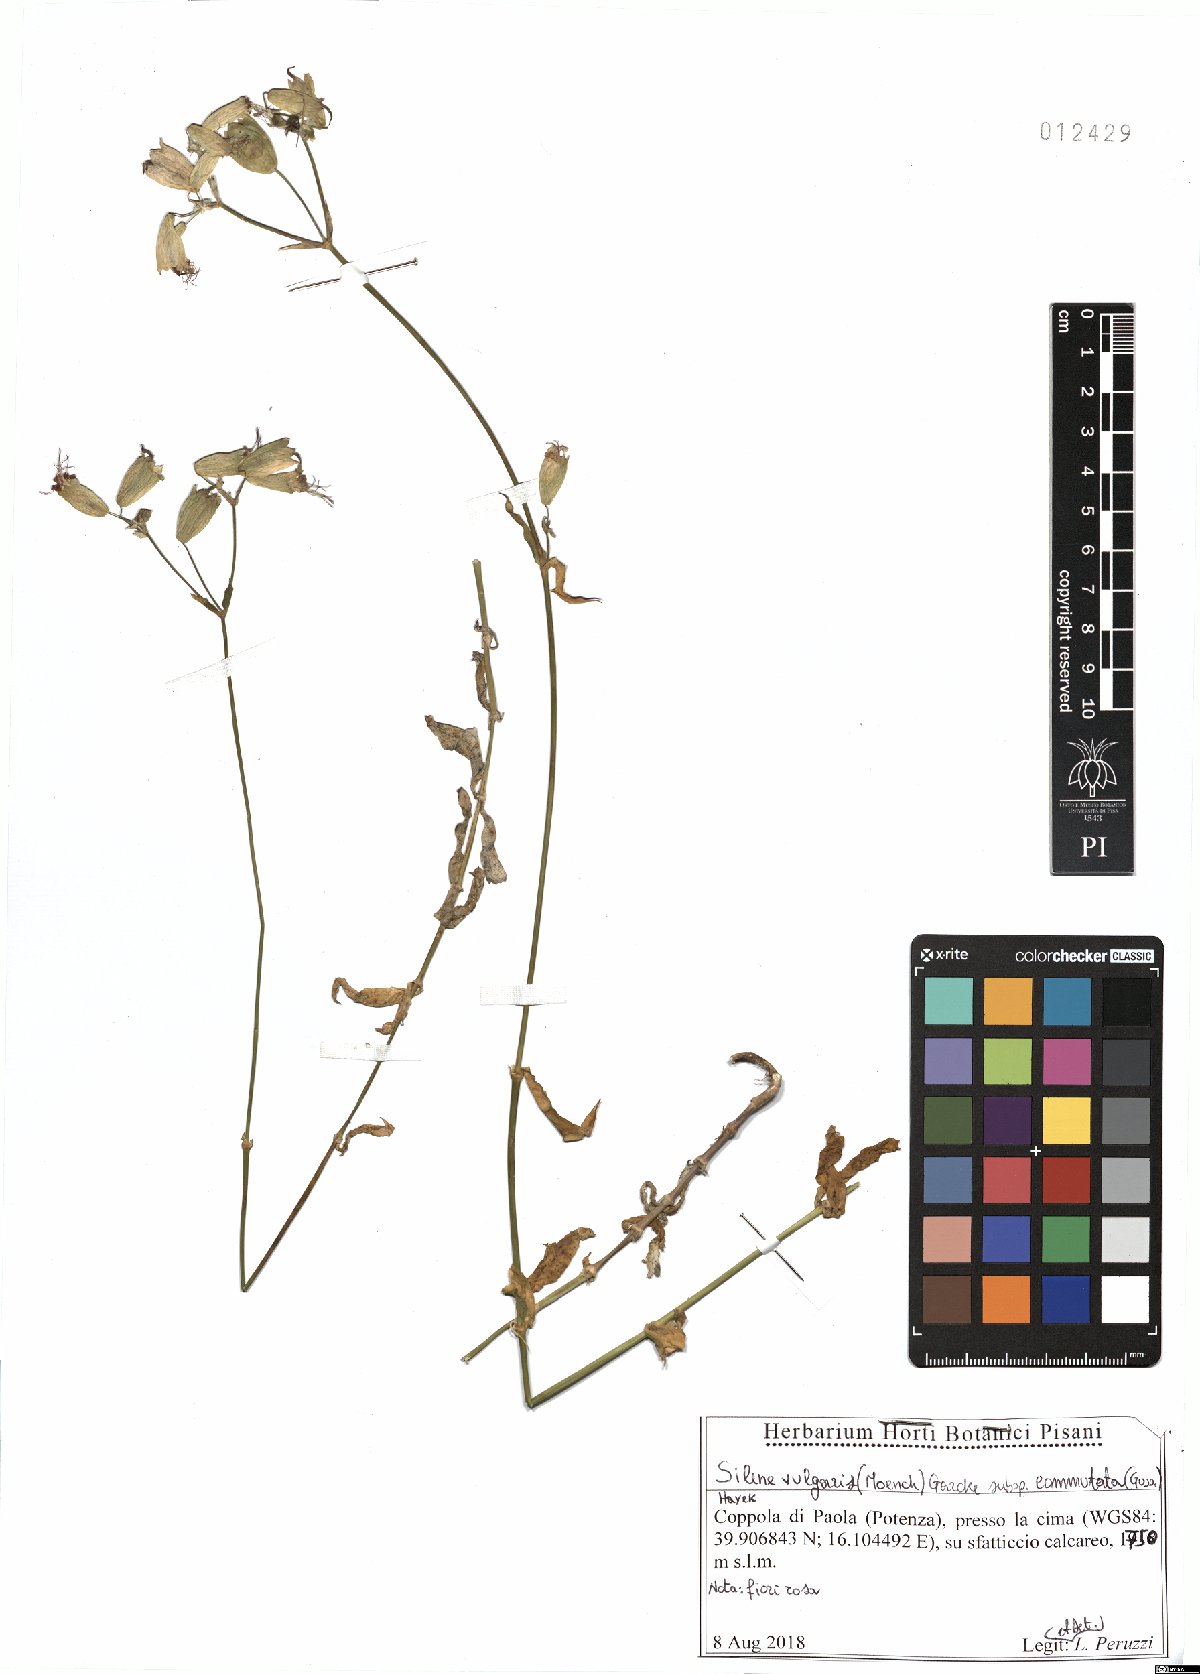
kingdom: Plantae
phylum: Tracheophyta
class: Magnoliopsida
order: Caryophyllales
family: Caryophyllaceae
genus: Silene
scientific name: Silene commutata
